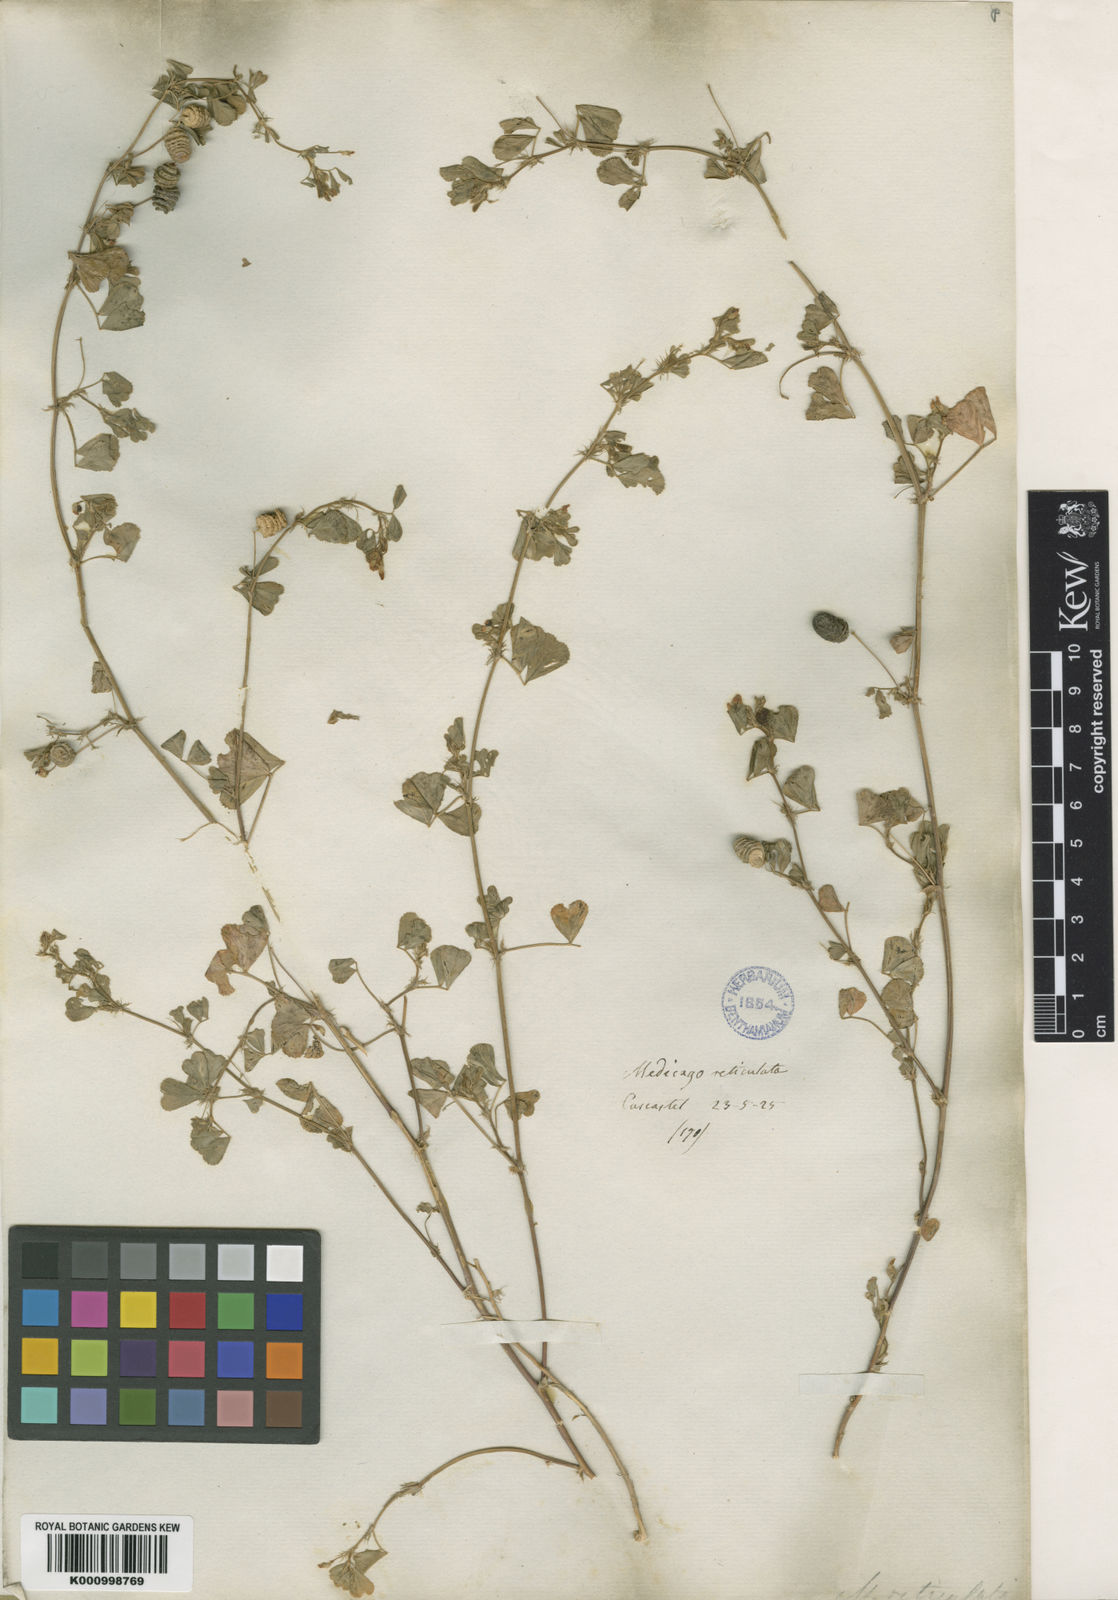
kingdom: Plantae
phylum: Tracheophyta
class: Magnoliopsida
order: Fabales
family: Fabaceae
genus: Medicago
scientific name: Medicago polymorpha
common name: Burclover
